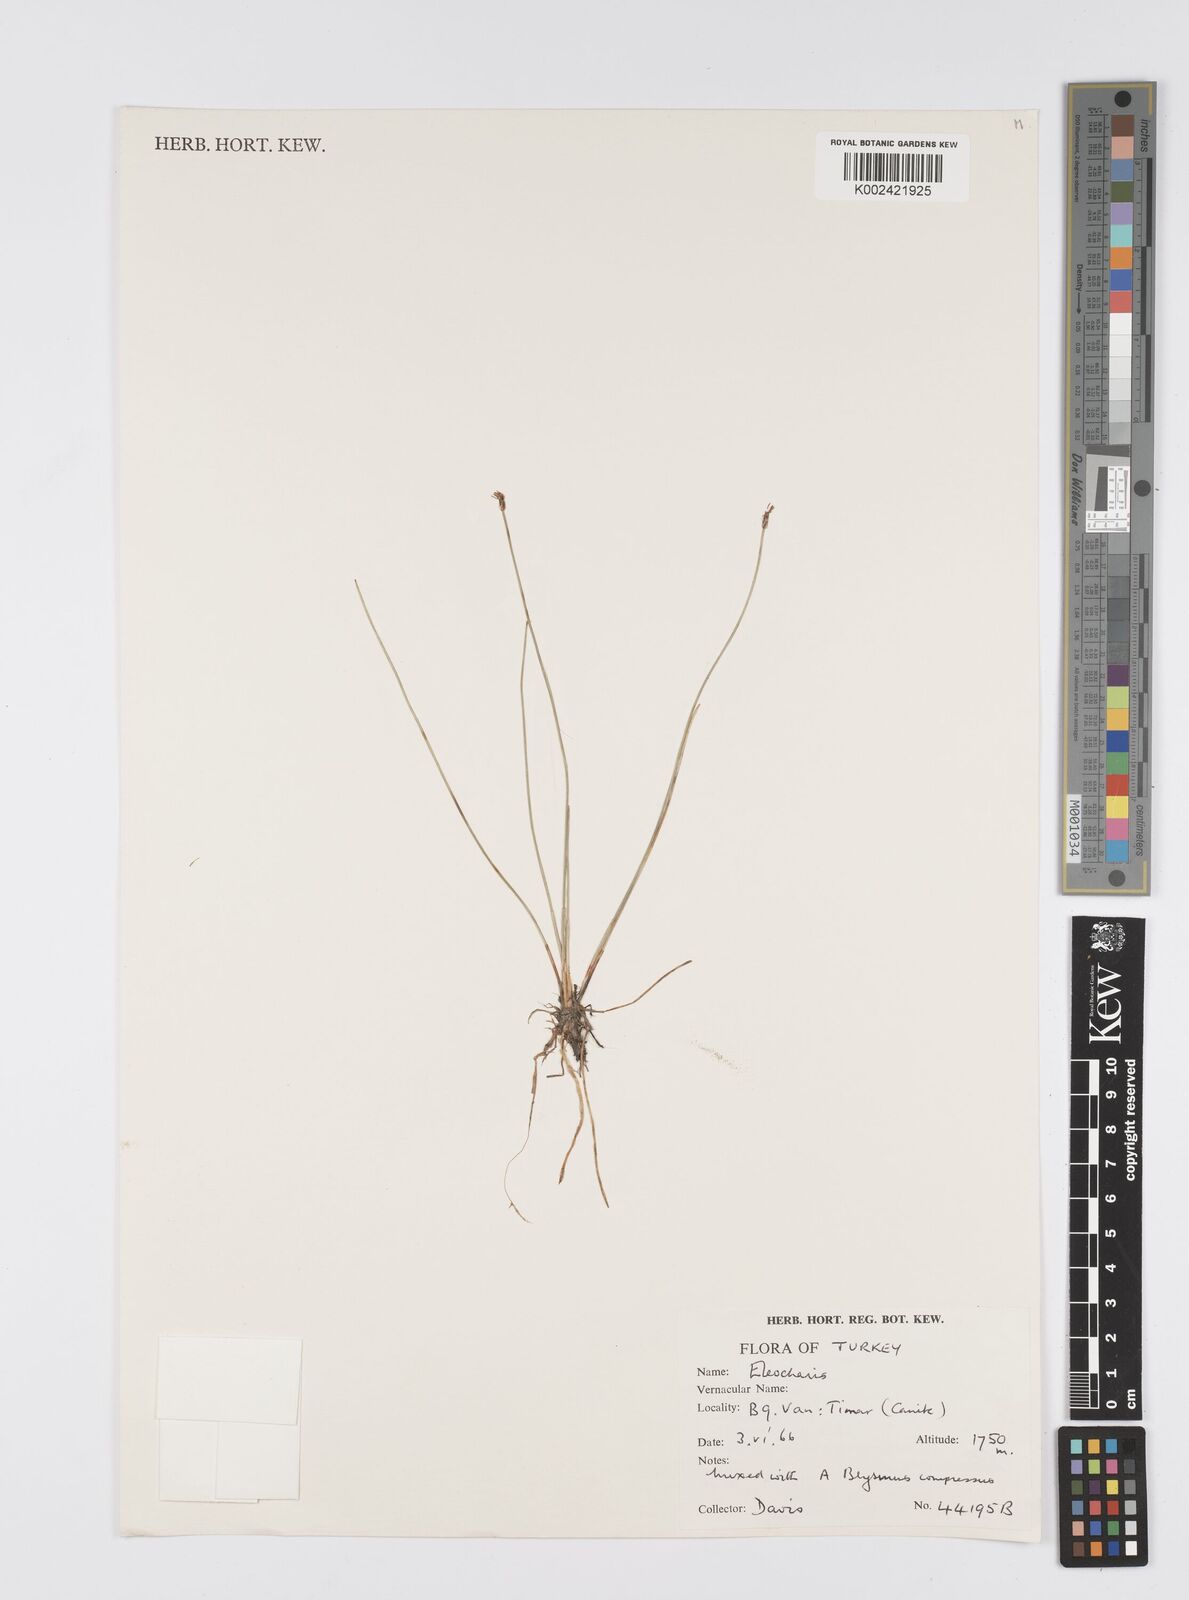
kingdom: Plantae
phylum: Tracheophyta
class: Liliopsida
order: Poales
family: Cyperaceae
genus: Eleocharis
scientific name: Eleocharis
